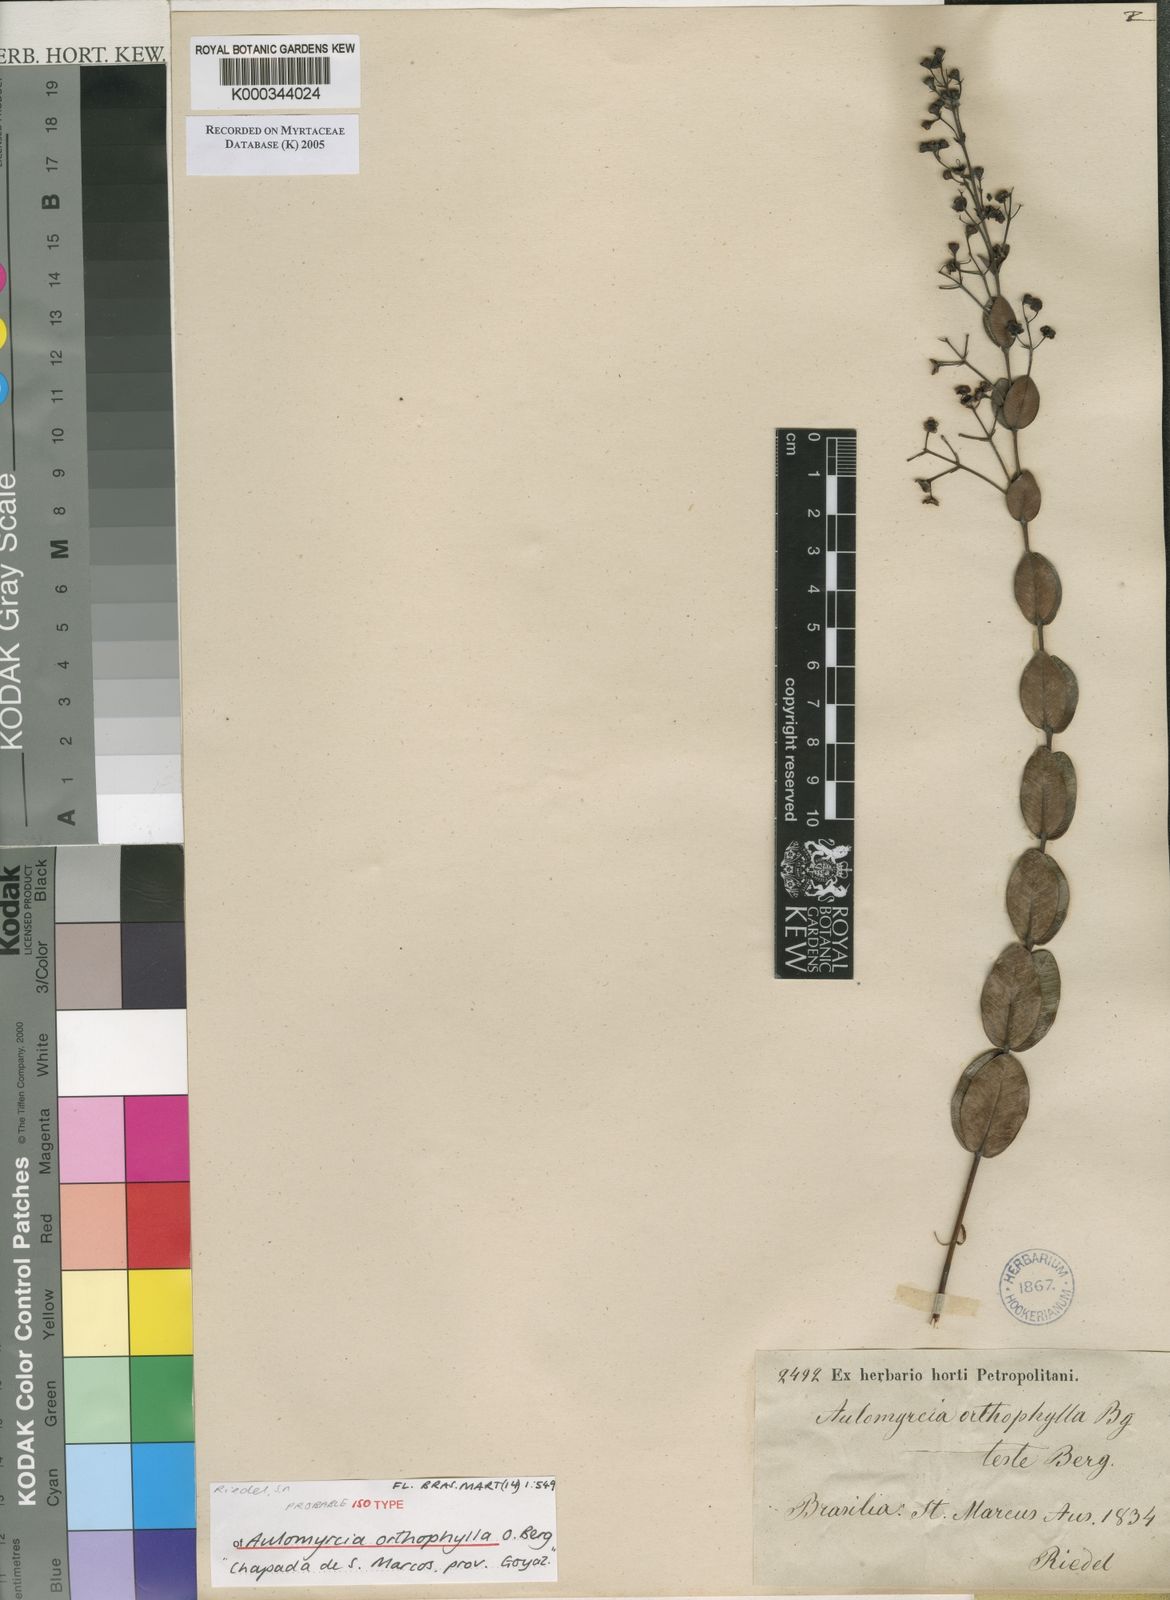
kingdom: Plantae
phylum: Tracheophyta
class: Magnoliopsida
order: Myrtales
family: Myrtaceae
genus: Myrcia
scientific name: Myrcia hypericoides
